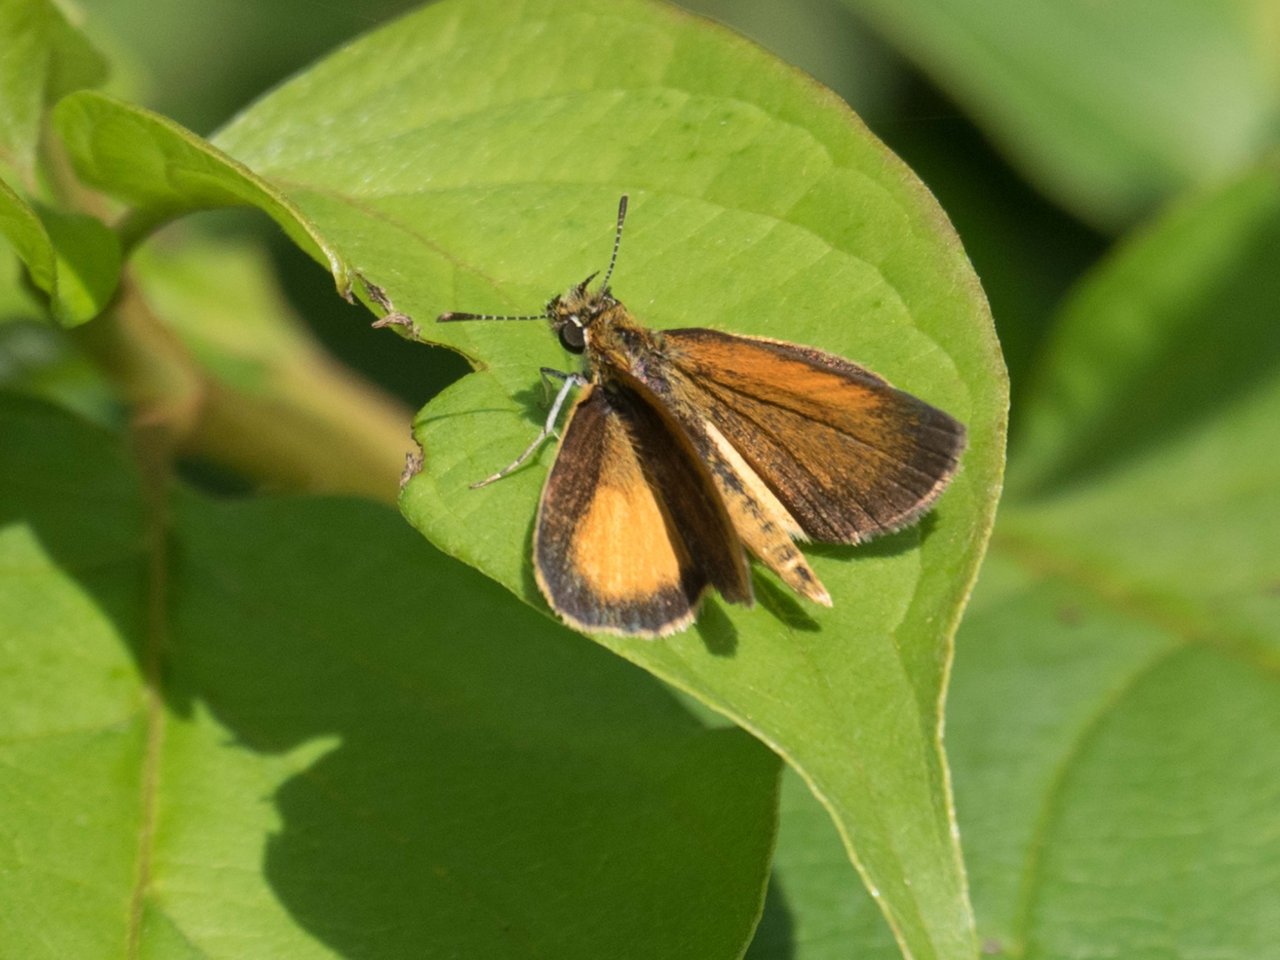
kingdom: Animalia
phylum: Arthropoda
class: Insecta
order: Lepidoptera
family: Hesperiidae
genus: Ancyloxypha
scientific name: Ancyloxypha numitor
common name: Least Skipper
